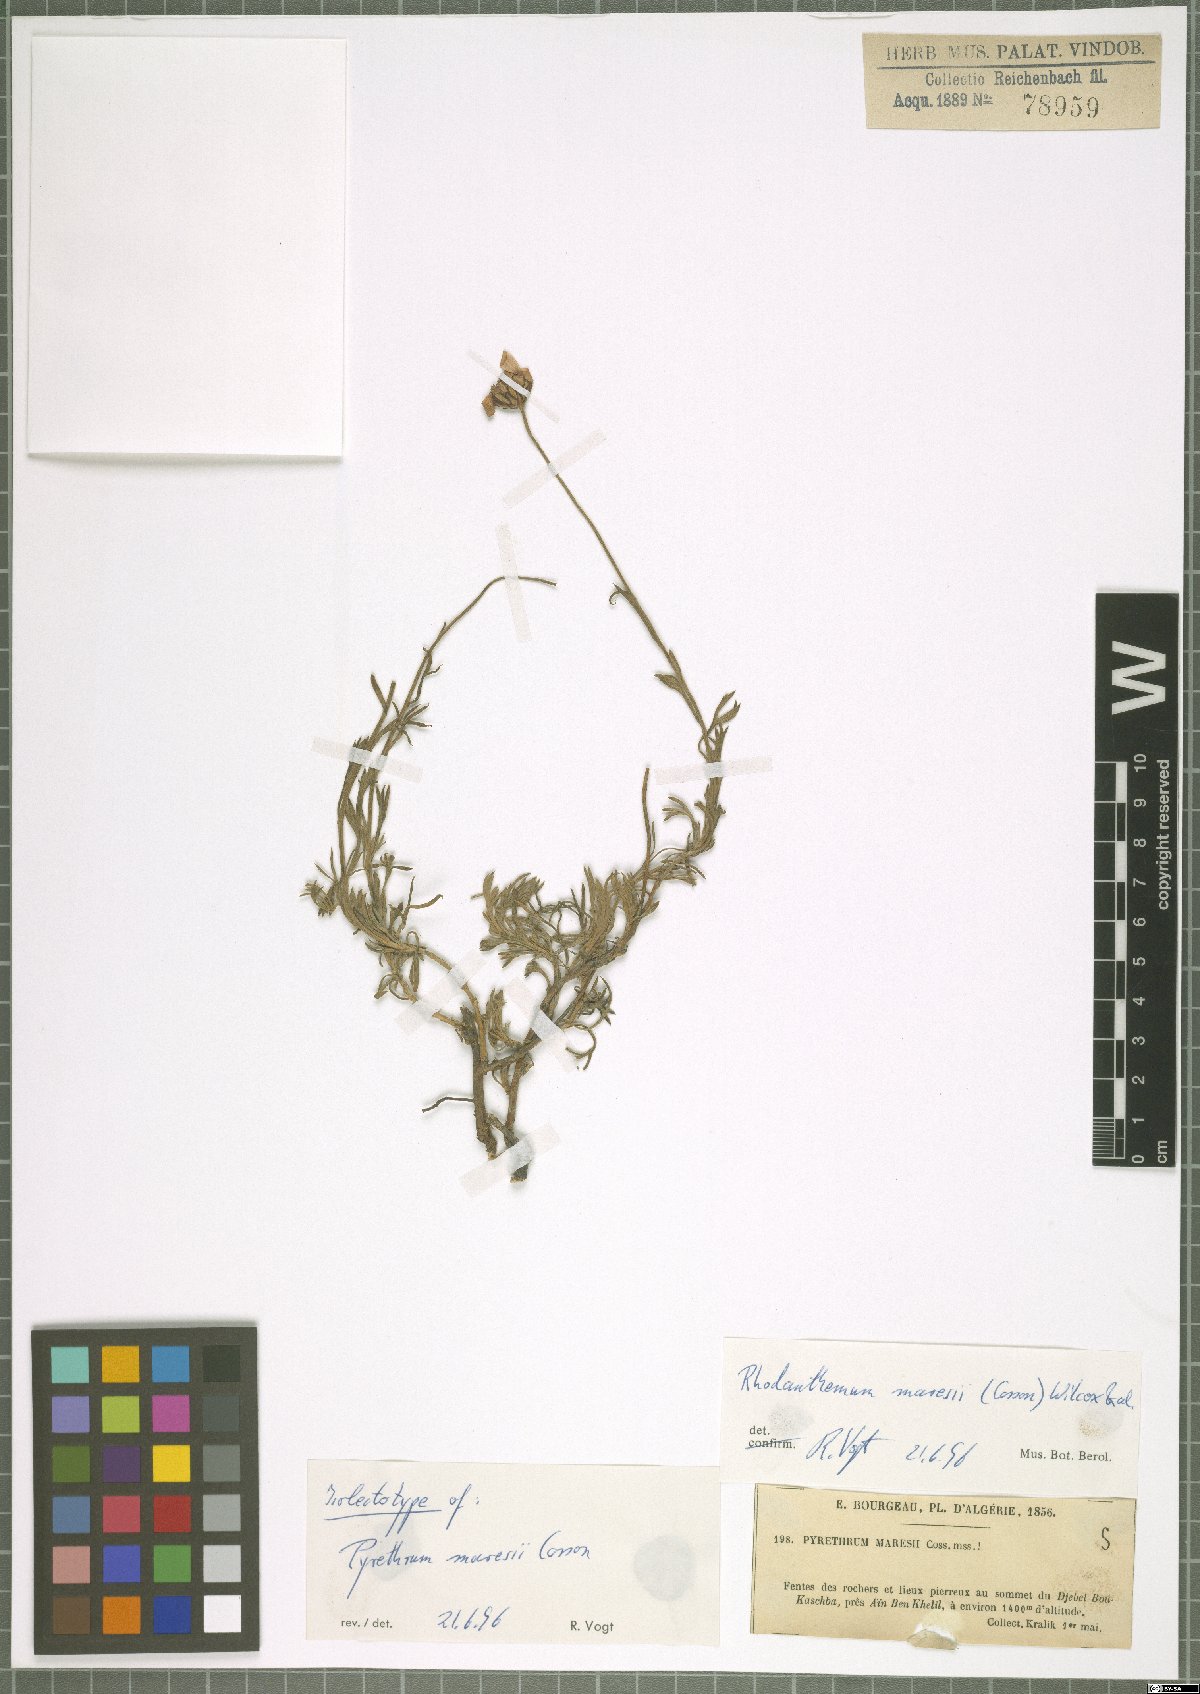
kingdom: Plantae
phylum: Tracheophyta
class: Magnoliopsida
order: Asterales
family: Asteraceae
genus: Rhodanthemum
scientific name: Rhodanthemum maresii
